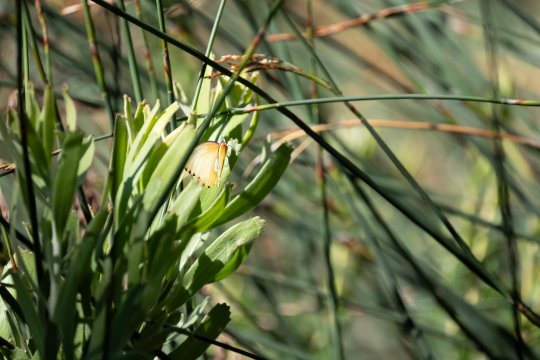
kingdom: Animalia
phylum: Arthropoda
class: Insecta
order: Lepidoptera
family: Pieridae
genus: Mylothris
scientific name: Mylothris agathina
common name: Eastern Dotted Border
